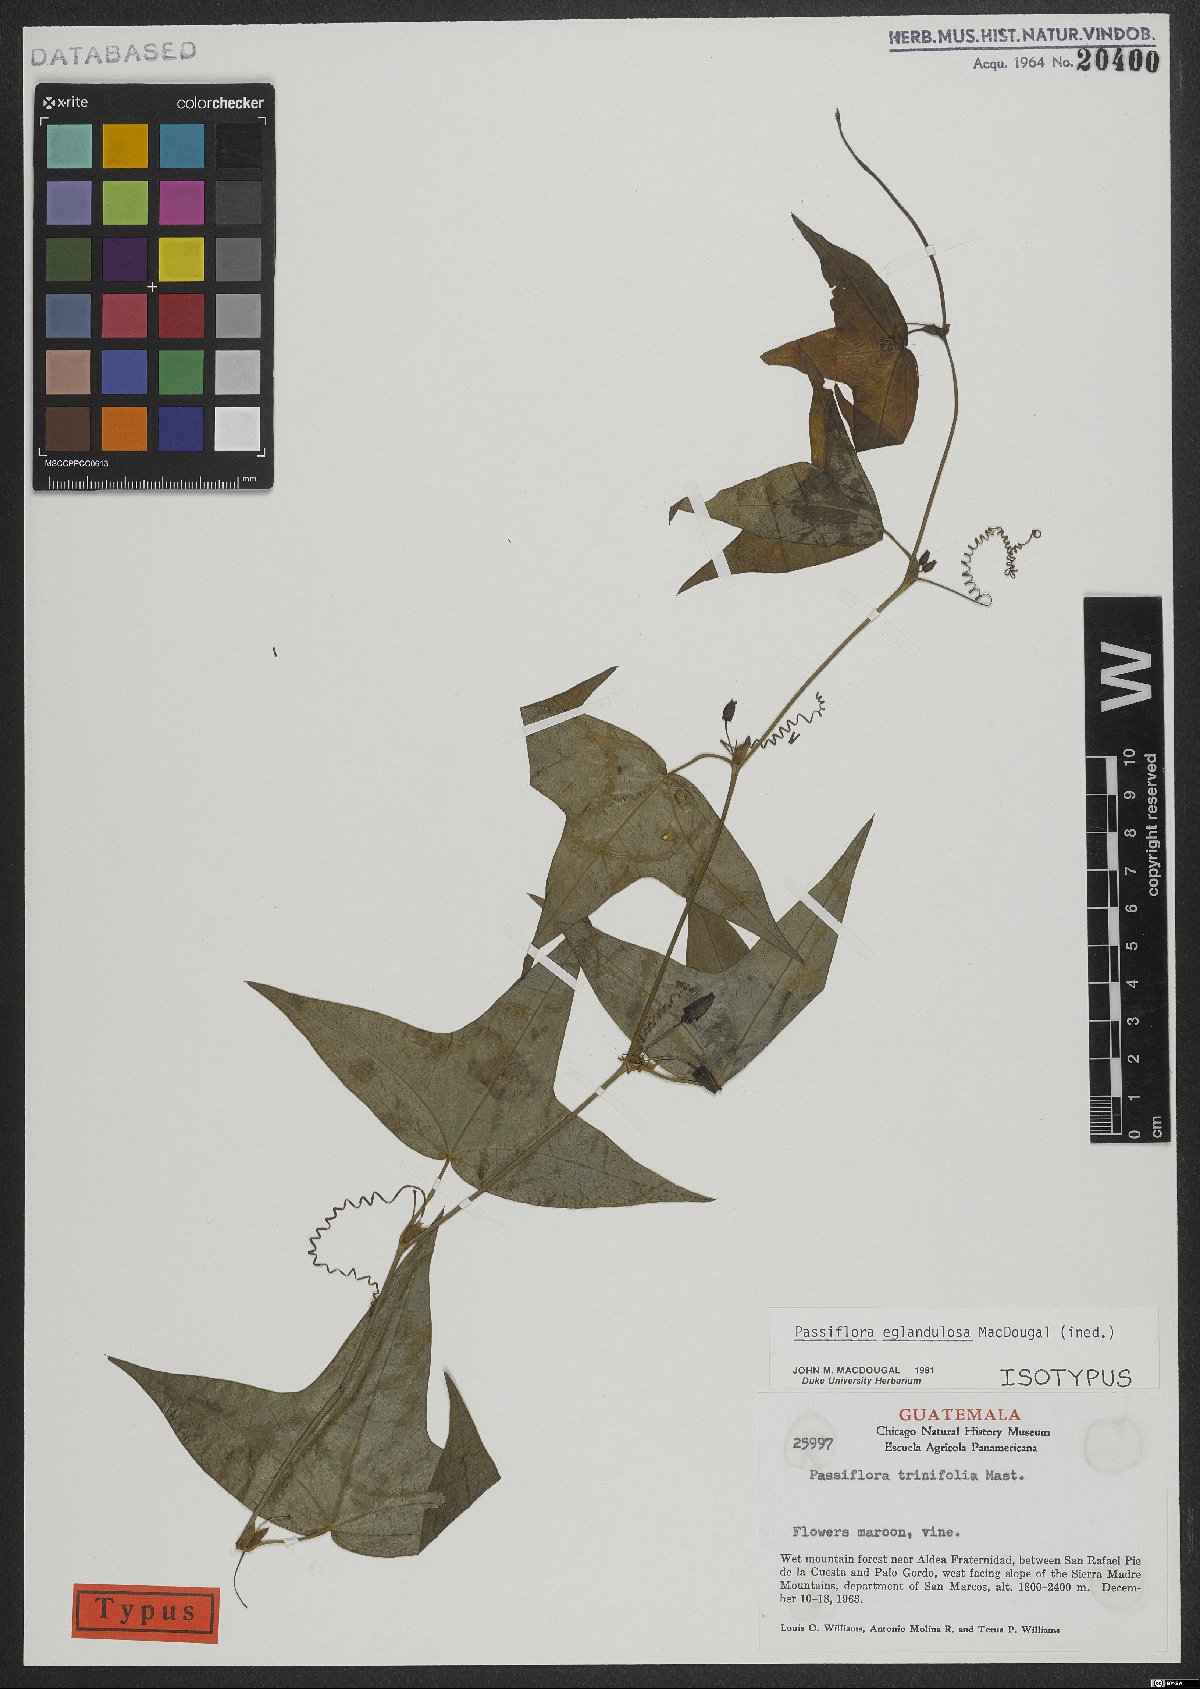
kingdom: Plantae
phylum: Tracheophyta
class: Magnoliopsida
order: Malpighiales
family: Passifloraceae
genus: Passiflora
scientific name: Passiflora eglandulosa
